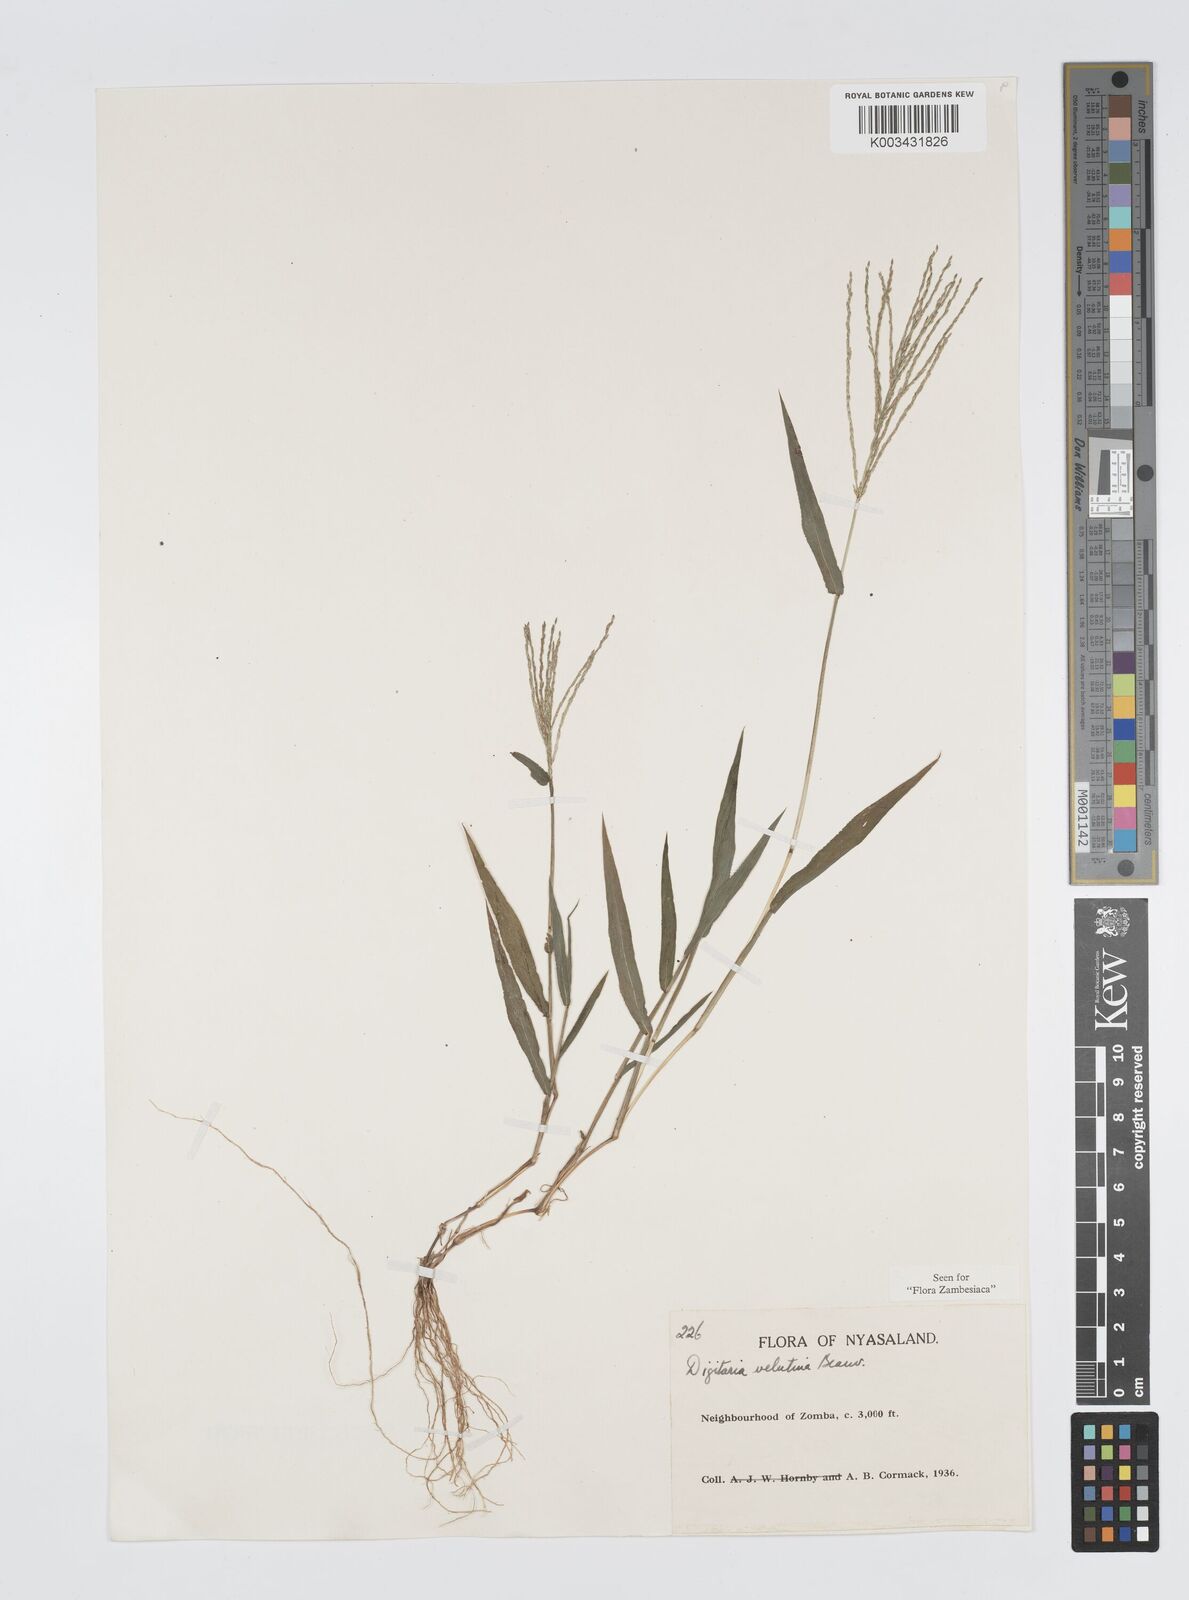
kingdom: Plantae
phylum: Tracheophyta
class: Liliopsida
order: Poales
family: Poaceae
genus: Digitaria
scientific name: Digitaria velutina
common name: Long-plume finger grass
